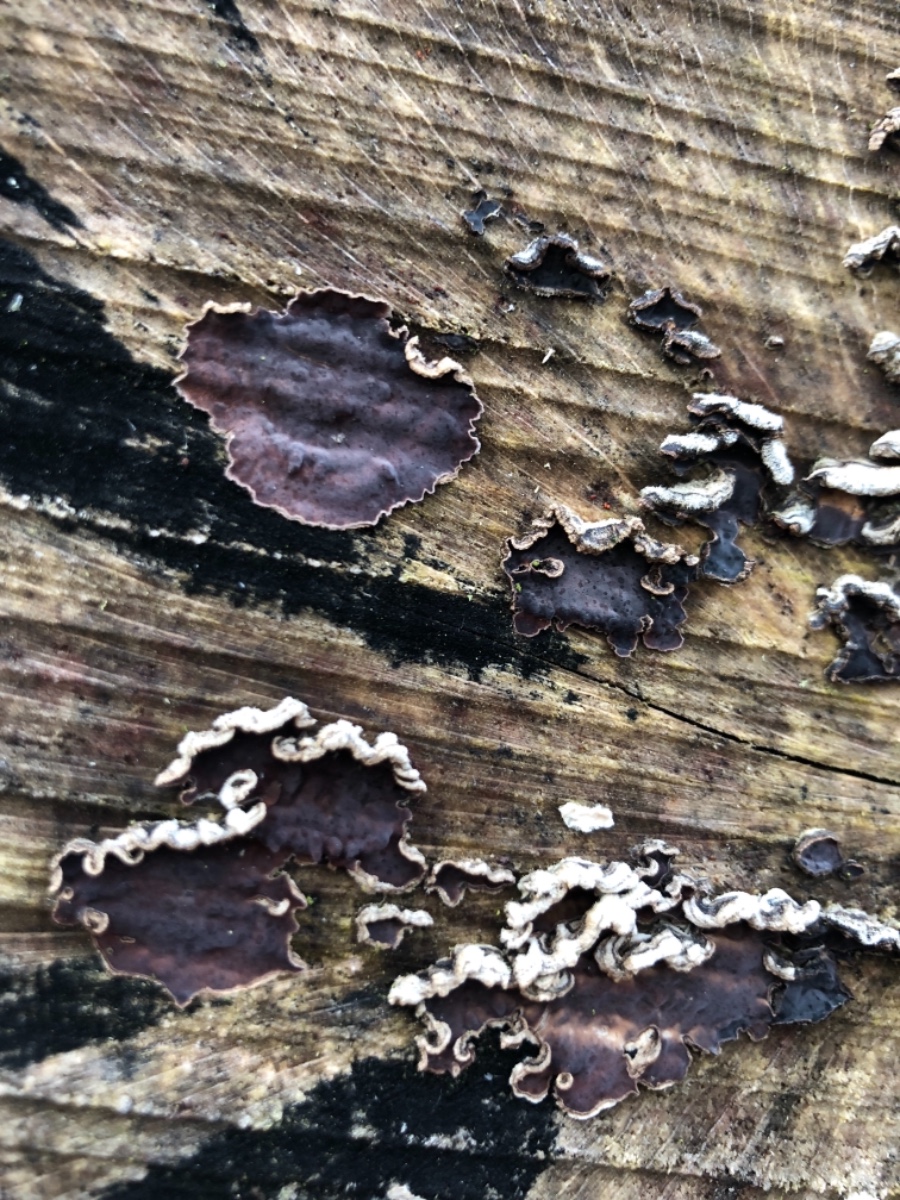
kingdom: Fungi
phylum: Basidiomycota
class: Agaricomycetes
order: Agaricales
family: Cyphellaceae
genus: Chondrostereum
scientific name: Chondrostereum purpureum
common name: purpurlædersvamp
